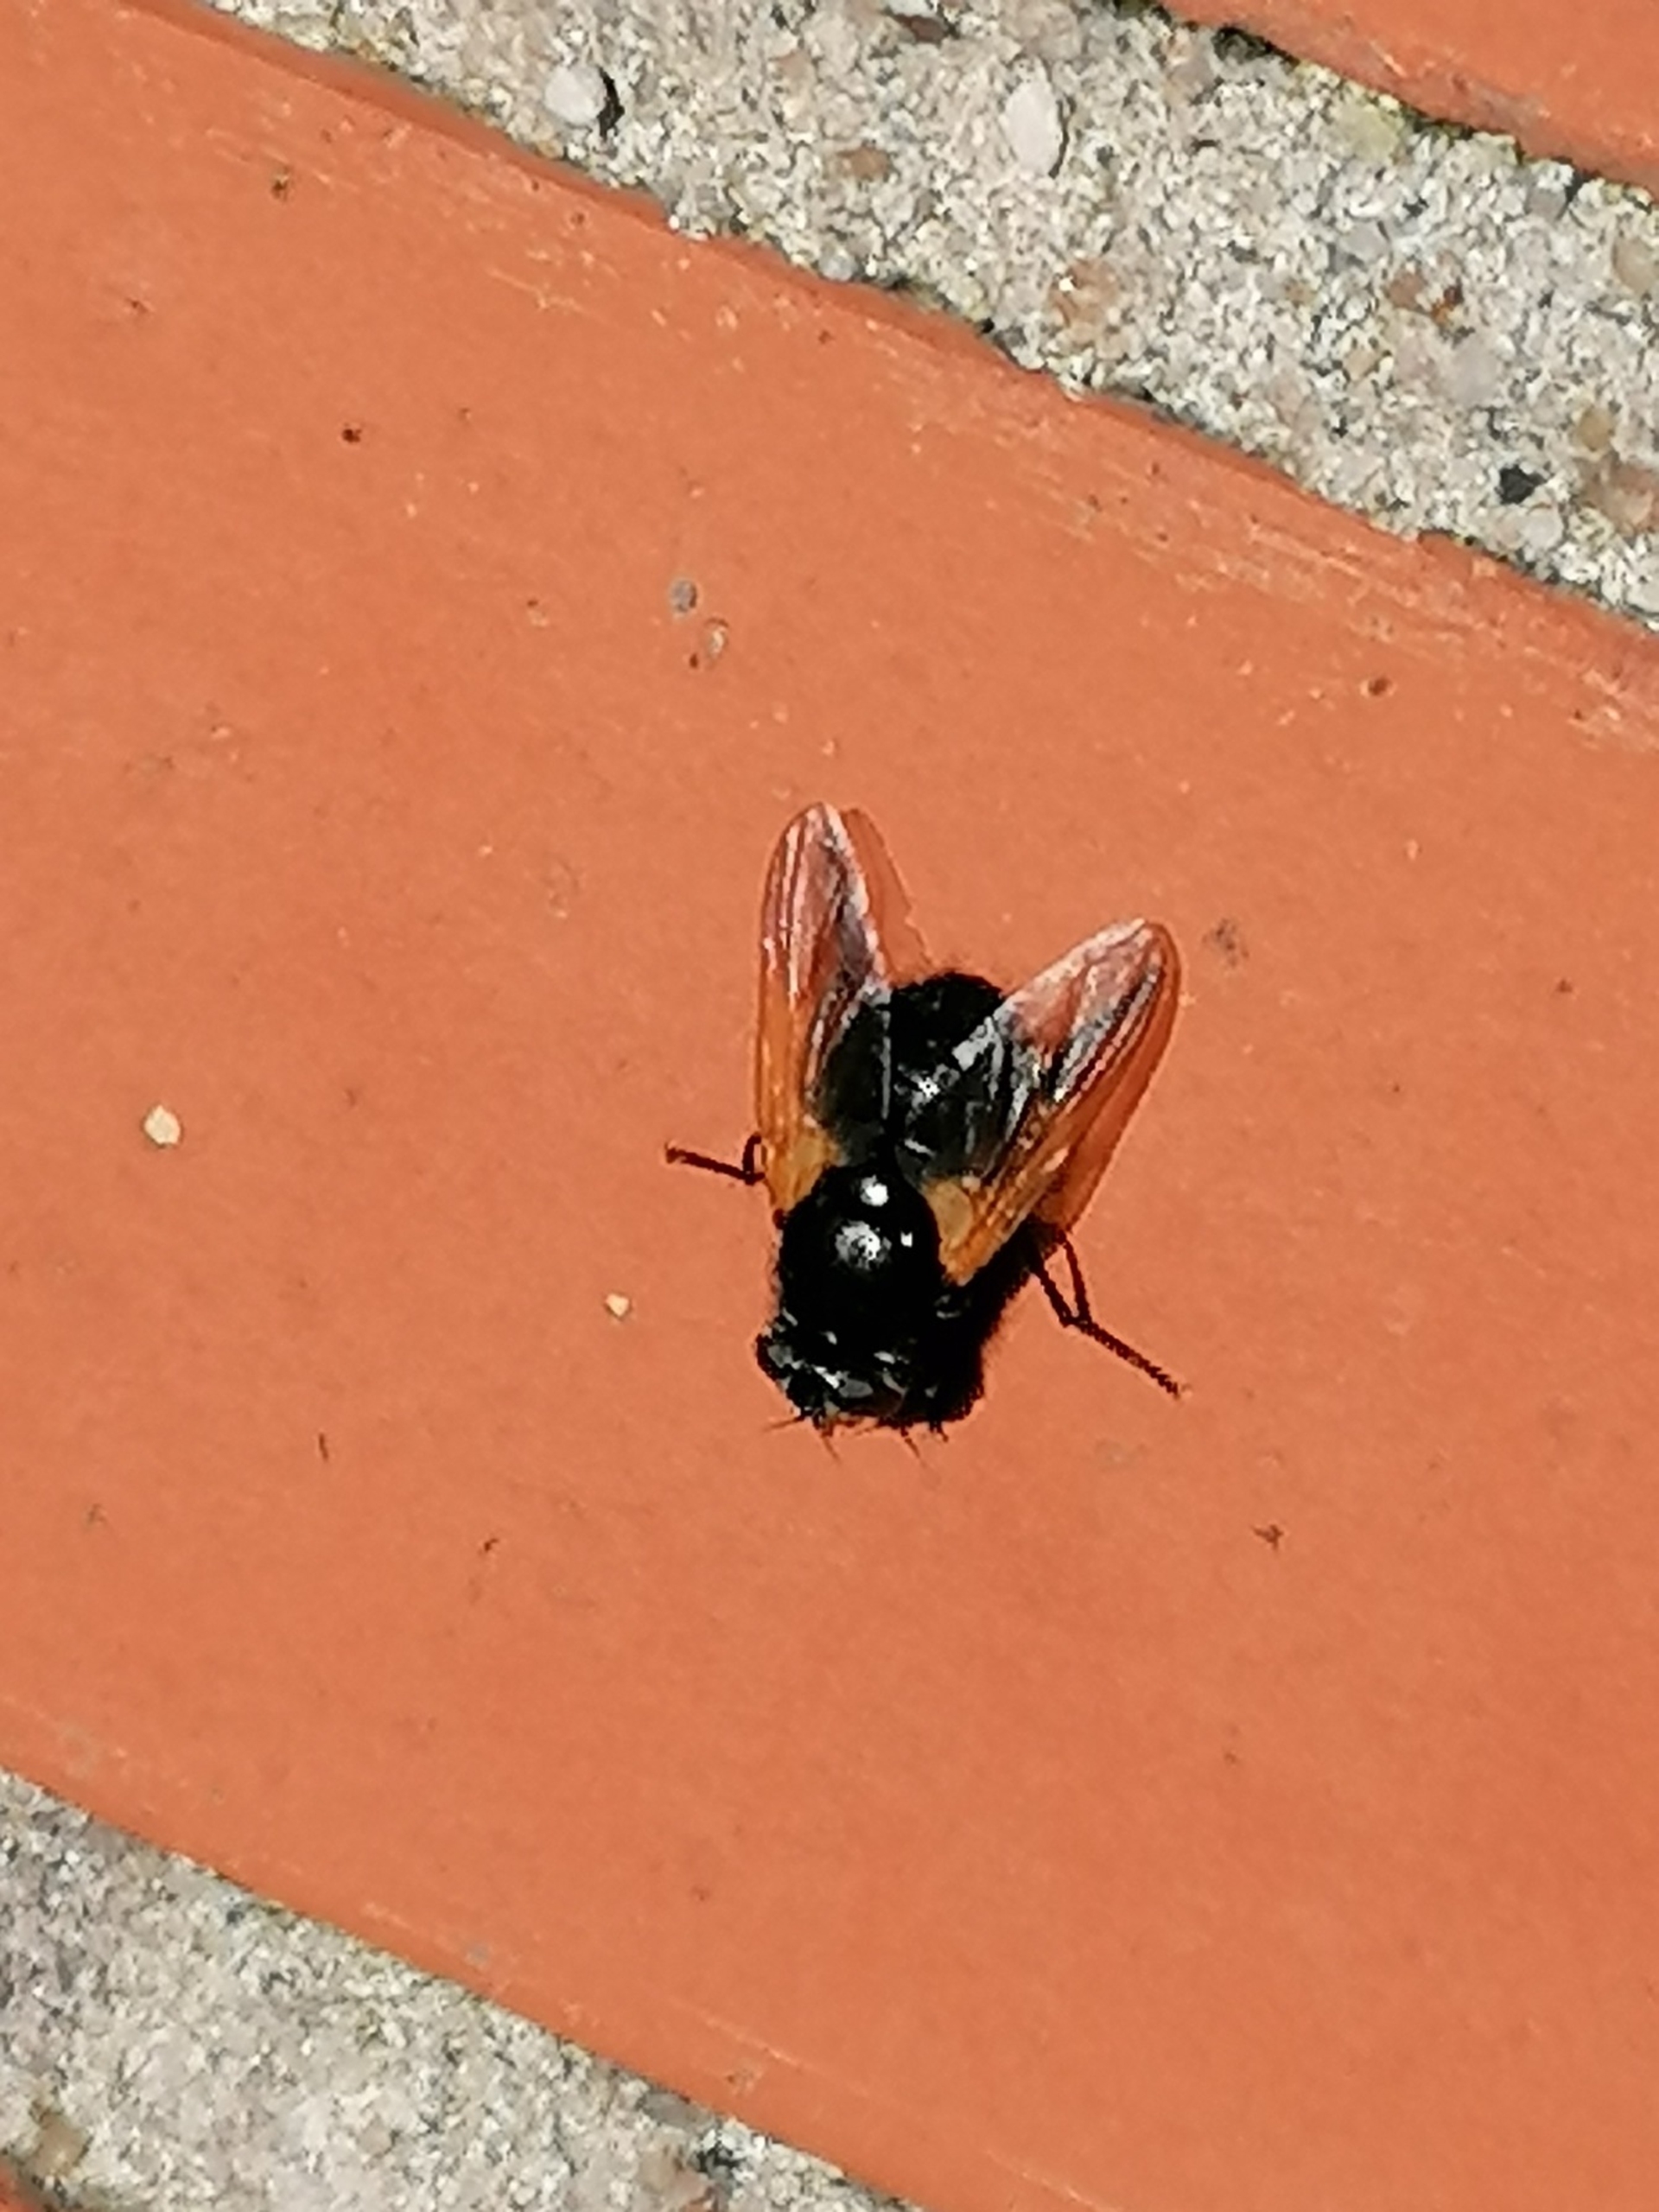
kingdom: Animalia
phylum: Arthropoda
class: Insecta
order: Diptera
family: Muscidae
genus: Mesembrina
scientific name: Mesembrina meridiana
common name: Gulvinget flue
